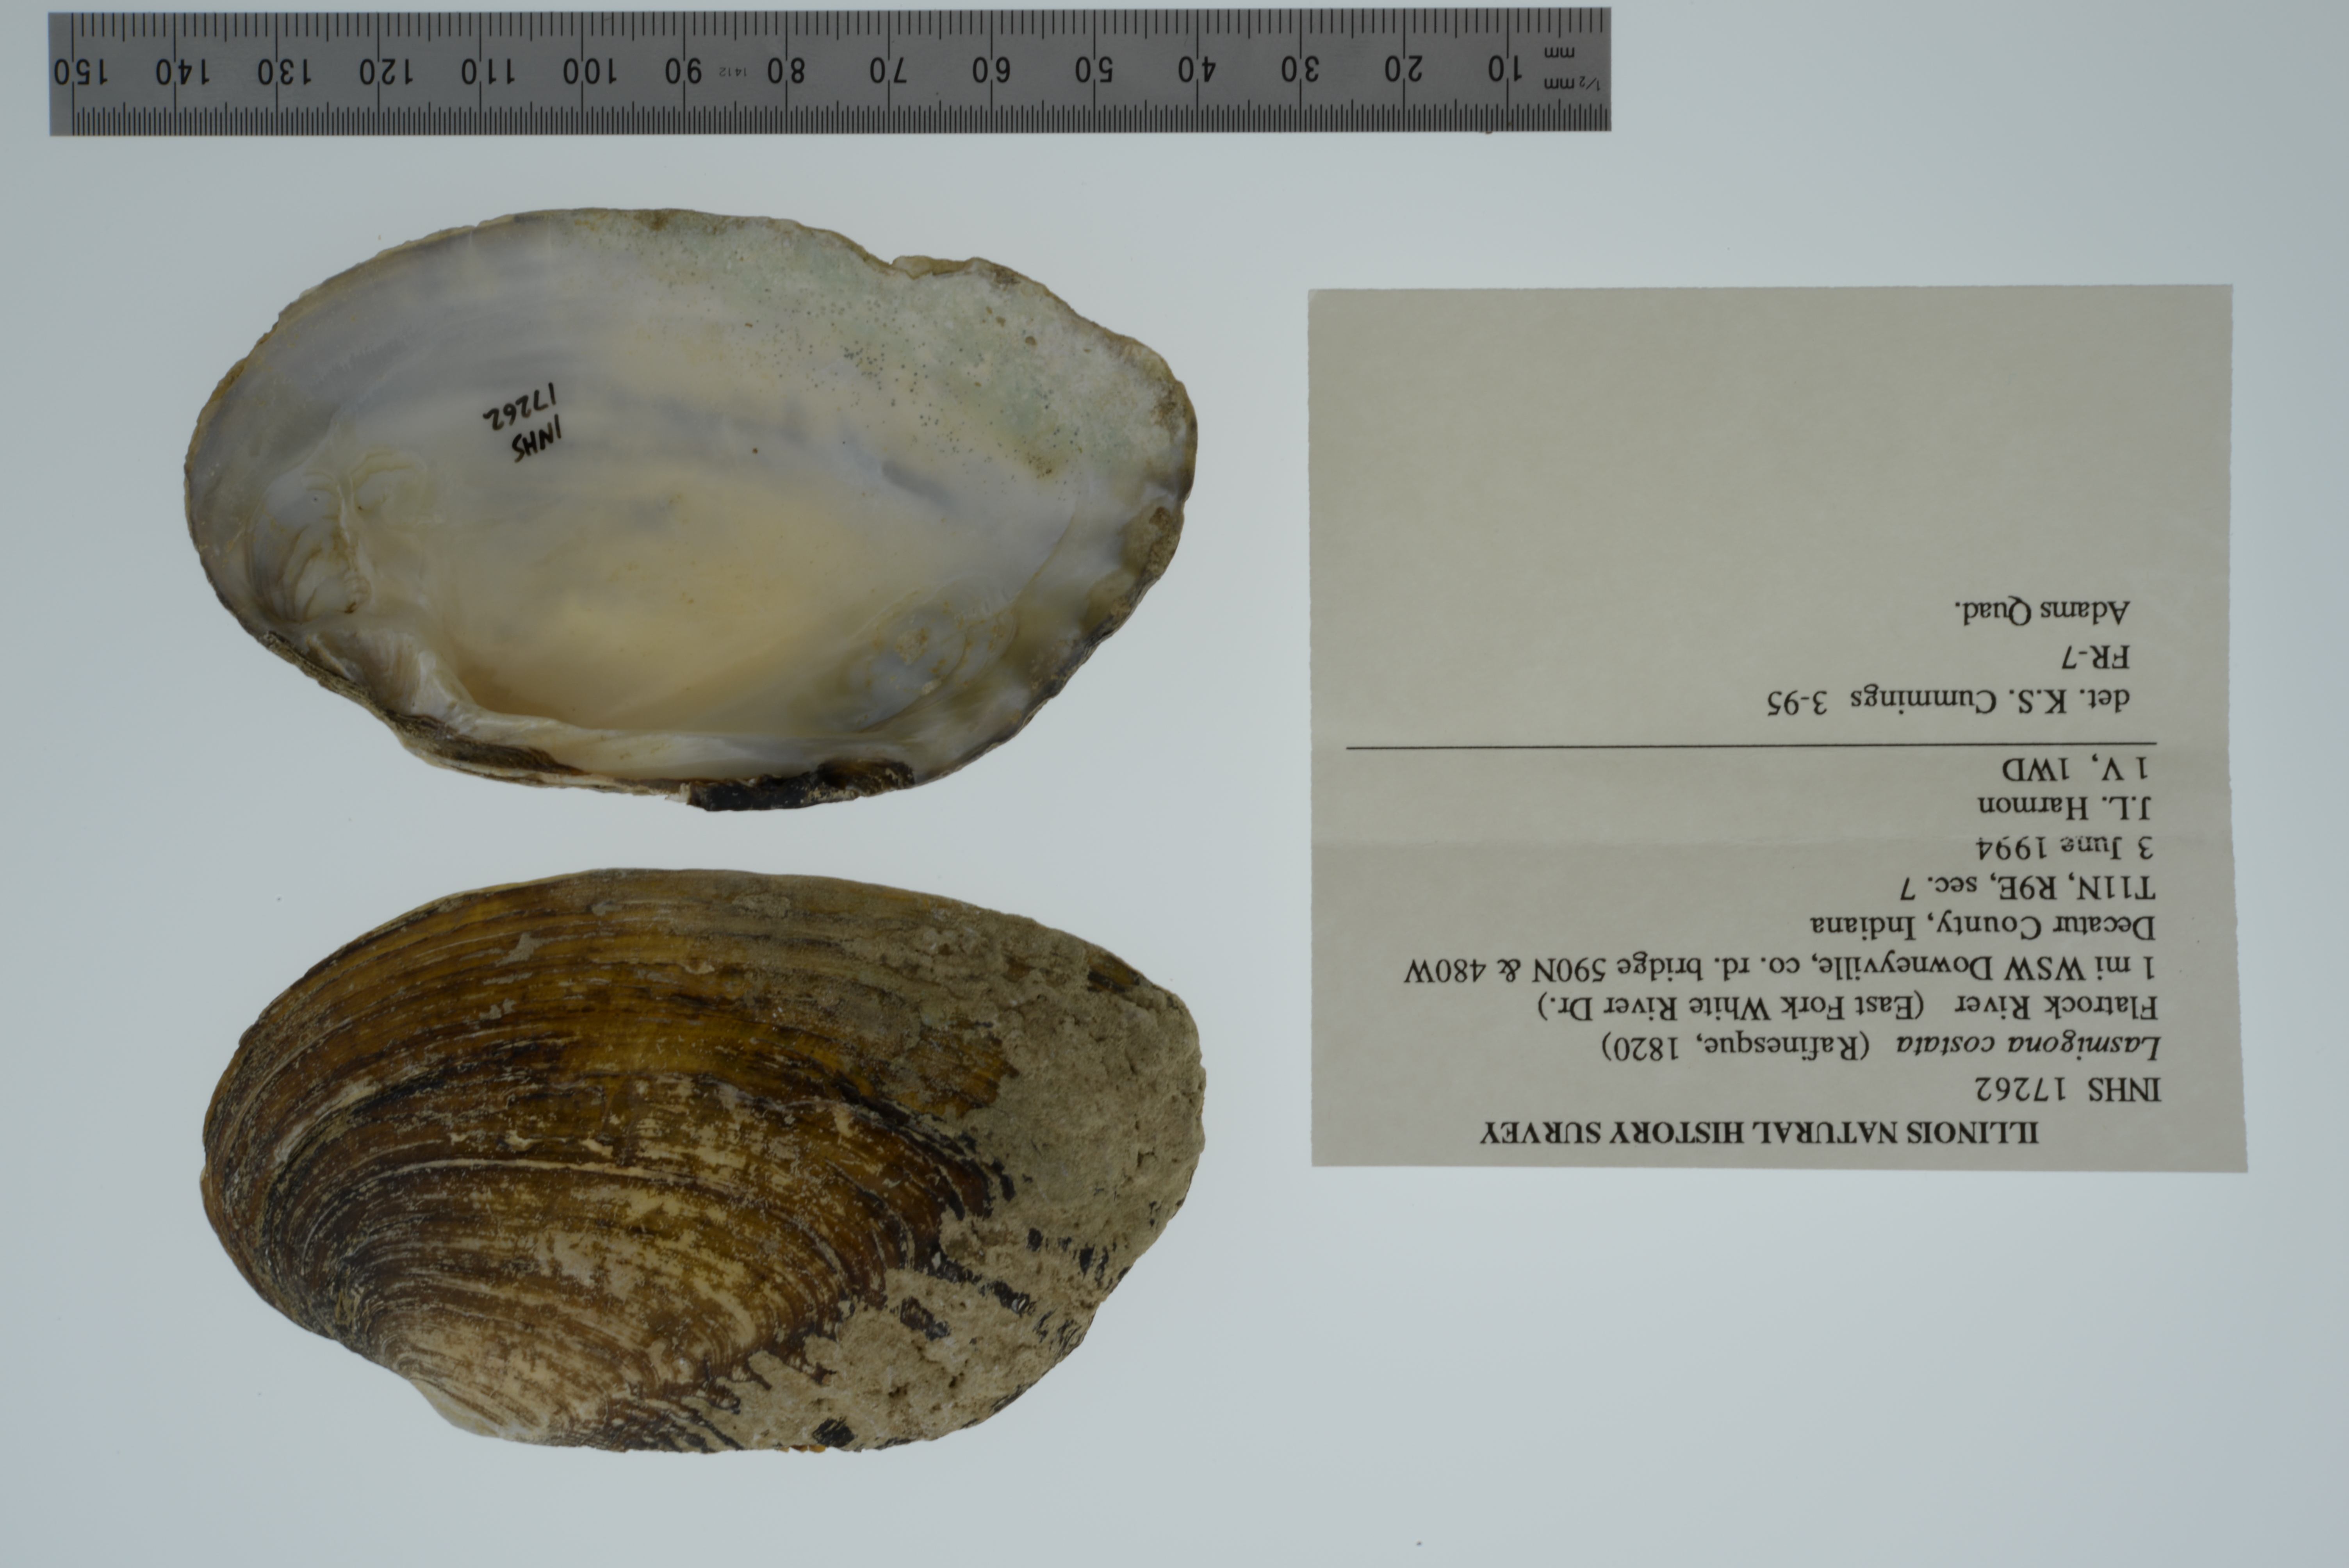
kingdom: Animalia
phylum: Mollusca
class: Bivalvia
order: Unionida
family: Unionidae
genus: Lasmigona
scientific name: Lasmigona costata
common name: Flutedshell
